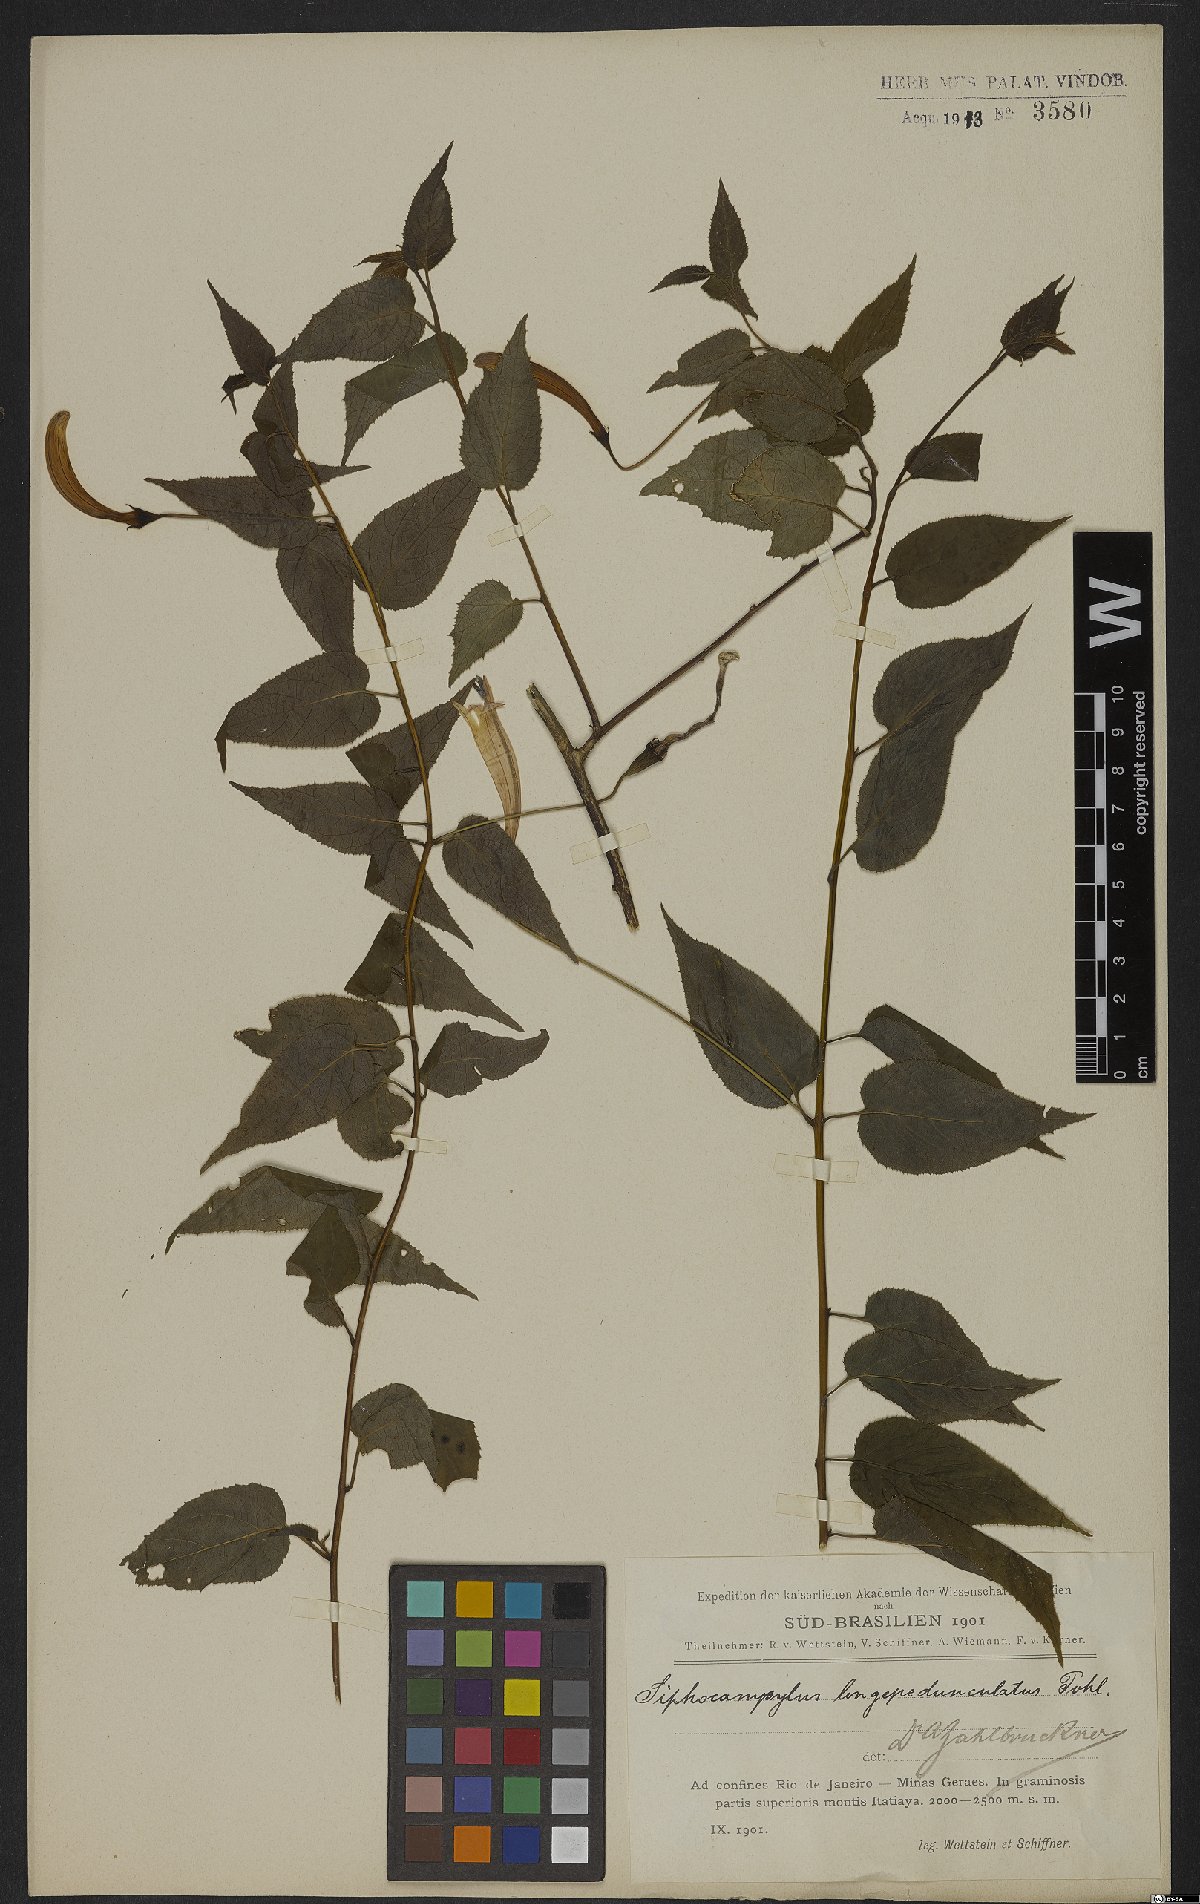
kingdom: Plantae
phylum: Tracheophyta
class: Magnoliopsida
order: Asterales
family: Campanulaceae
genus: Siphocampylus
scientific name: Siphocampylus longipedunculatus
